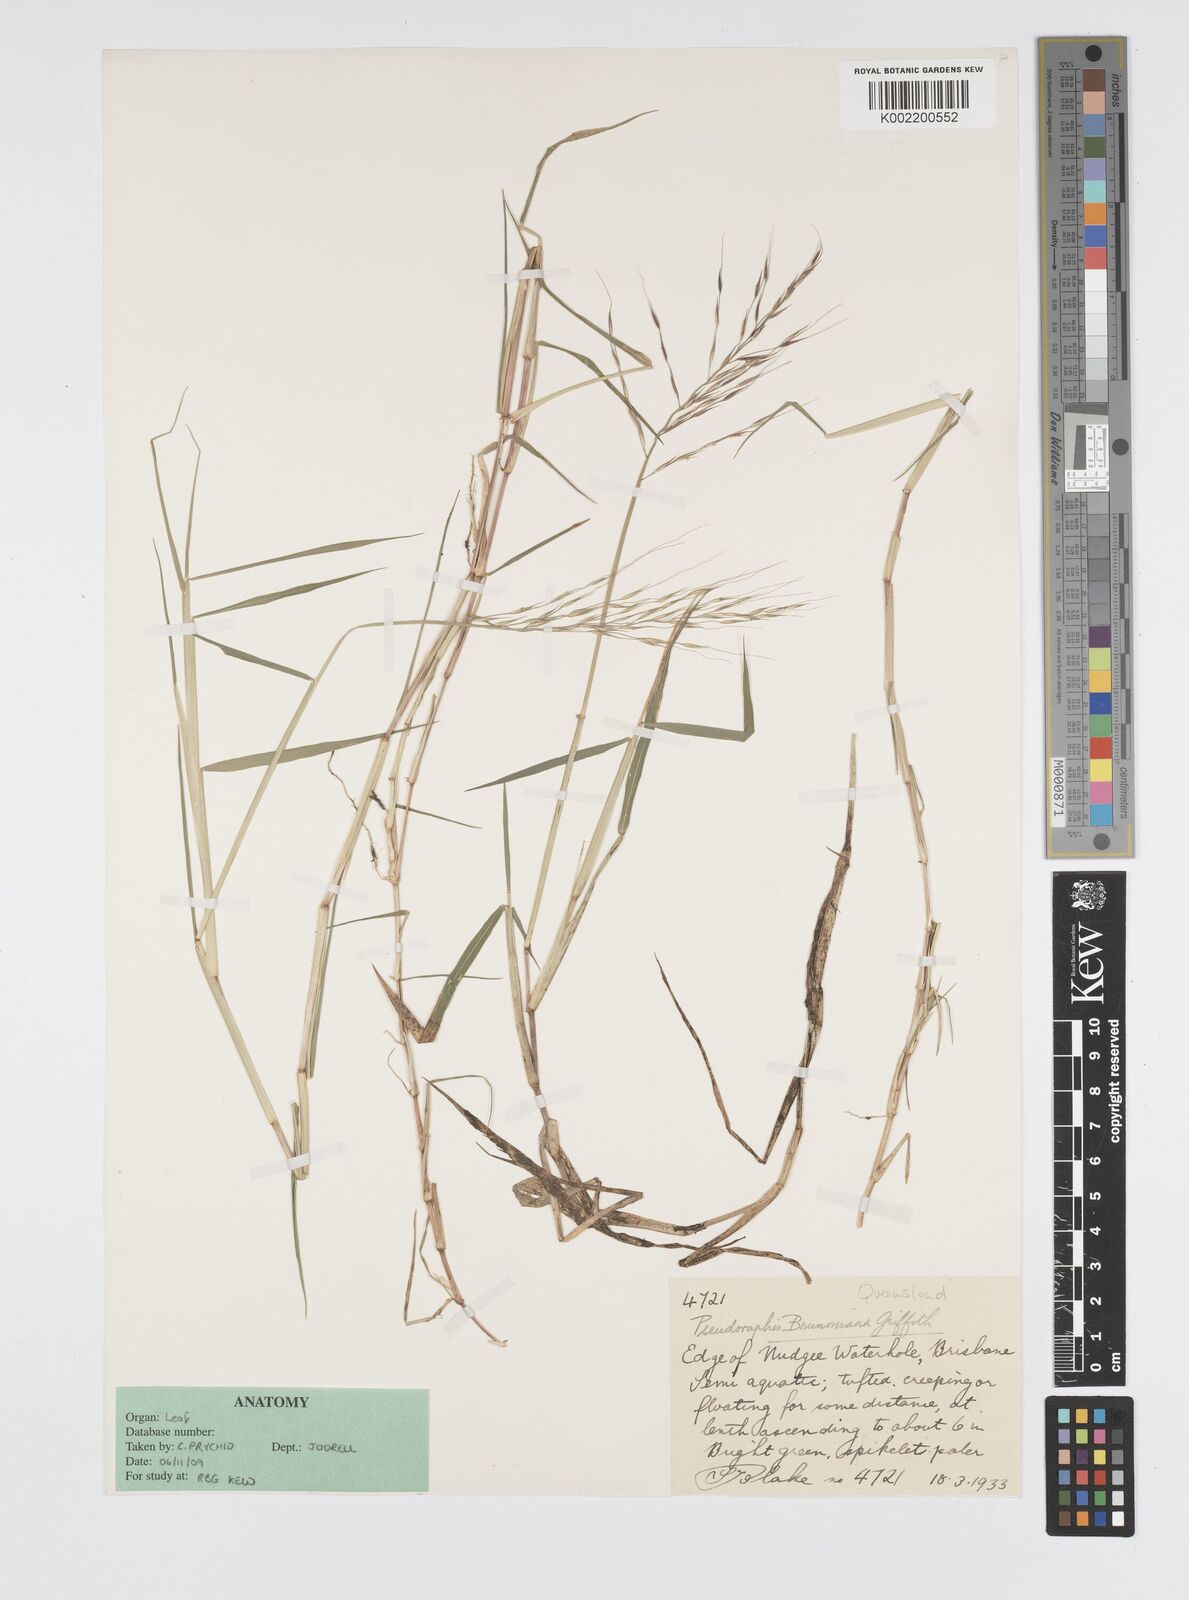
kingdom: Plantae
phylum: Tracheophyta
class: Liliopsida
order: Poales
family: Poaceae
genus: Pseudoraphis
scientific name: Pseudoraphis brunoniana
